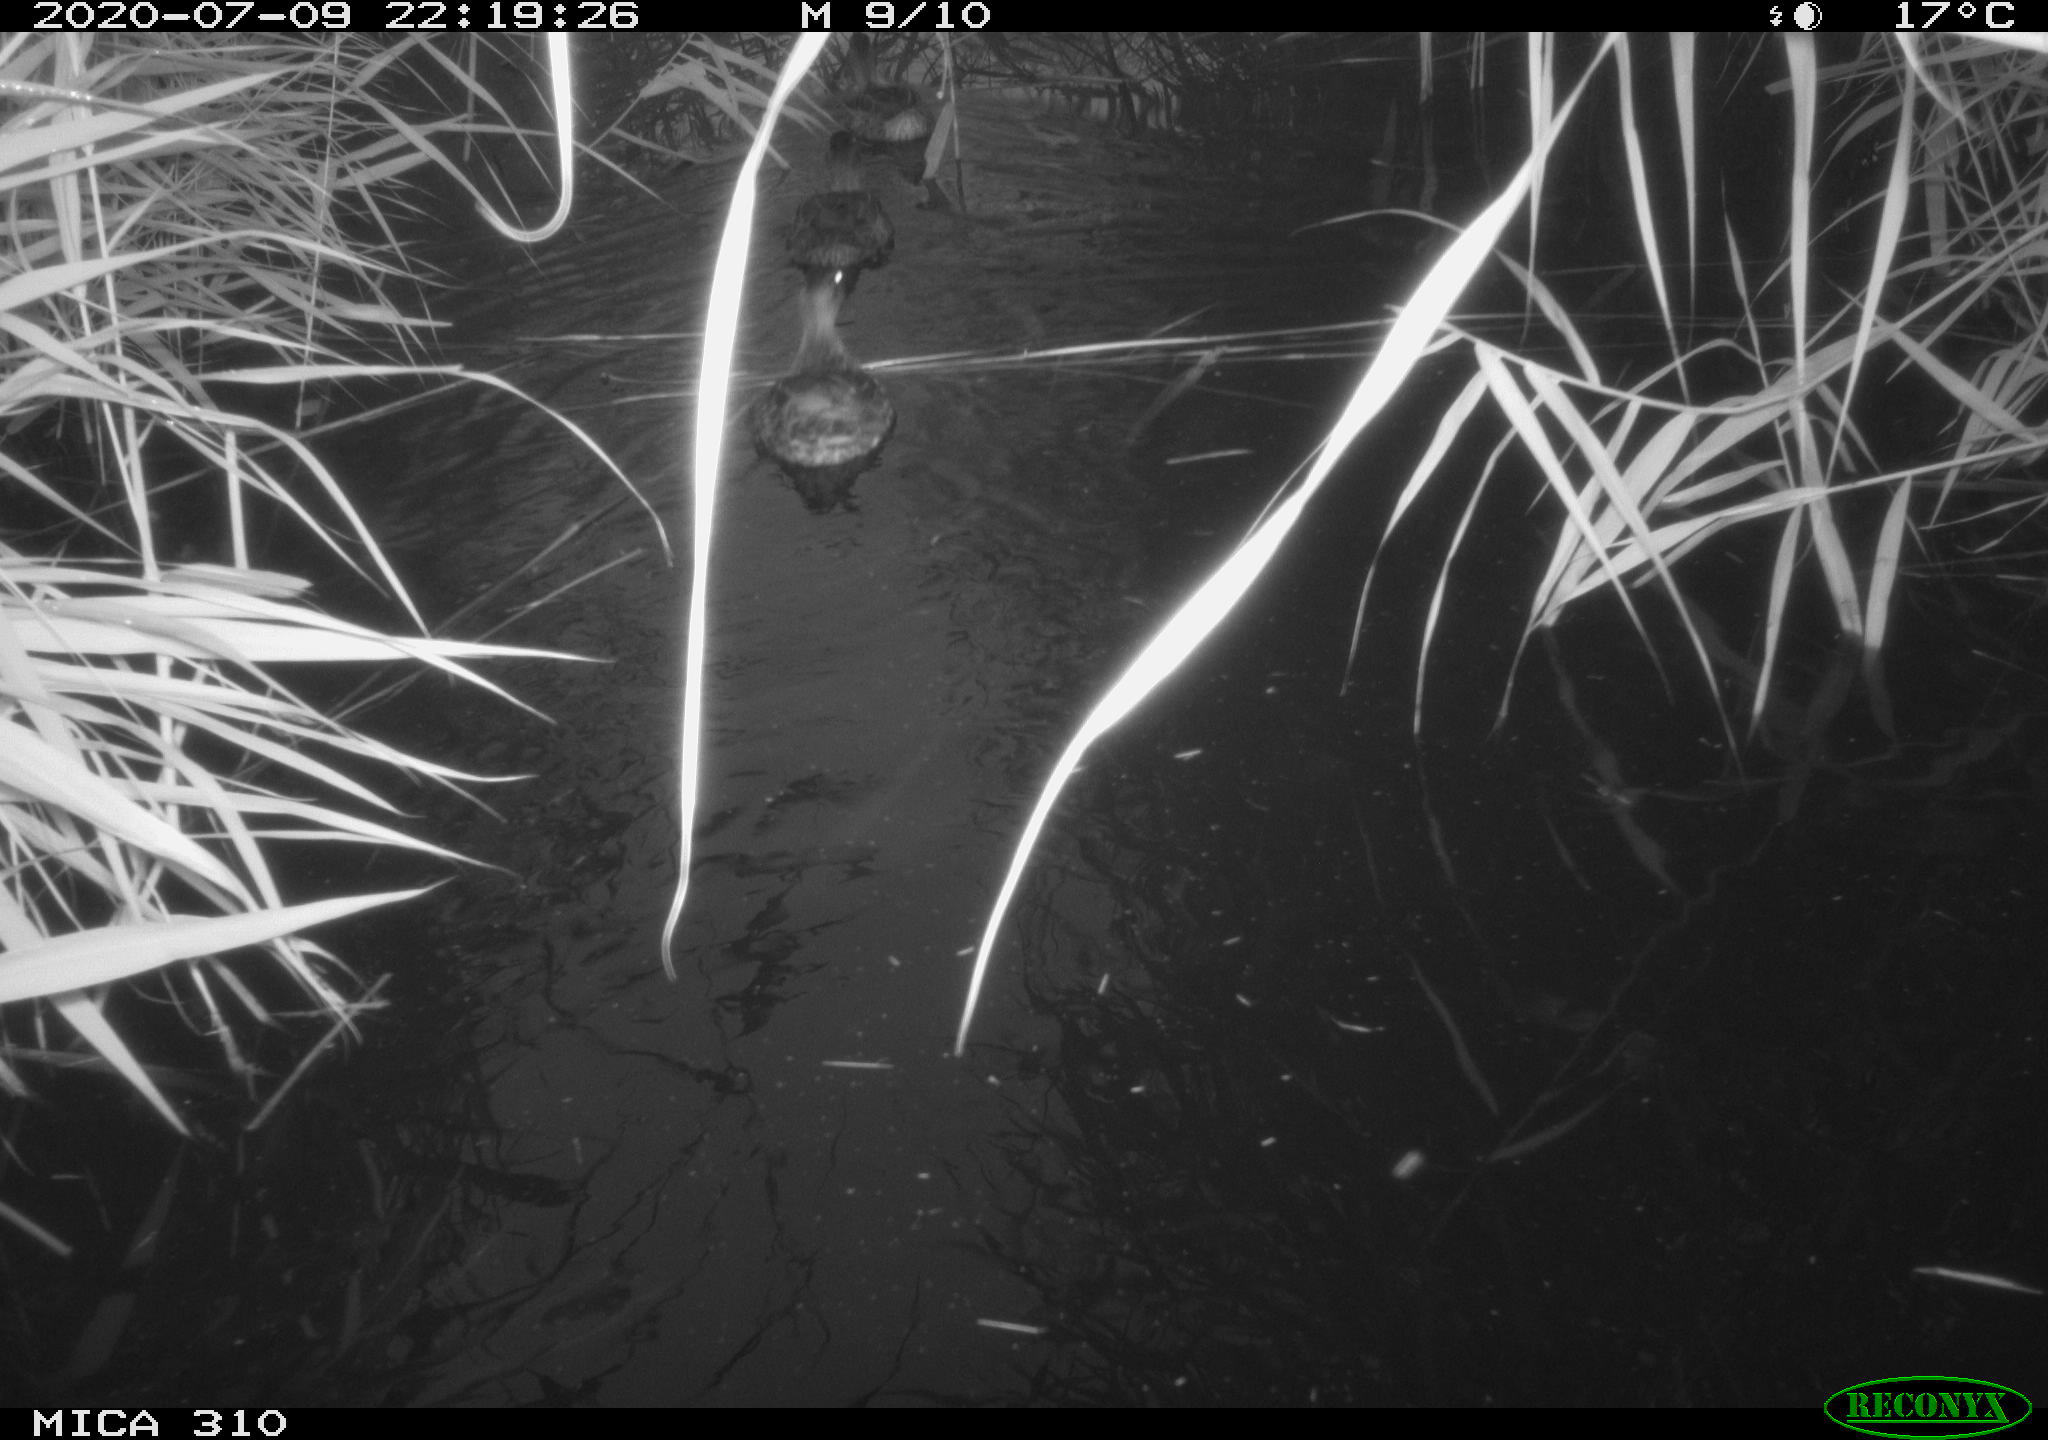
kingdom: Animalia
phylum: Chordata
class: Aves
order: Anseriformes
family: Anatidae
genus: Anas
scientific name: Anas platyrhynchos
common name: Mallard
